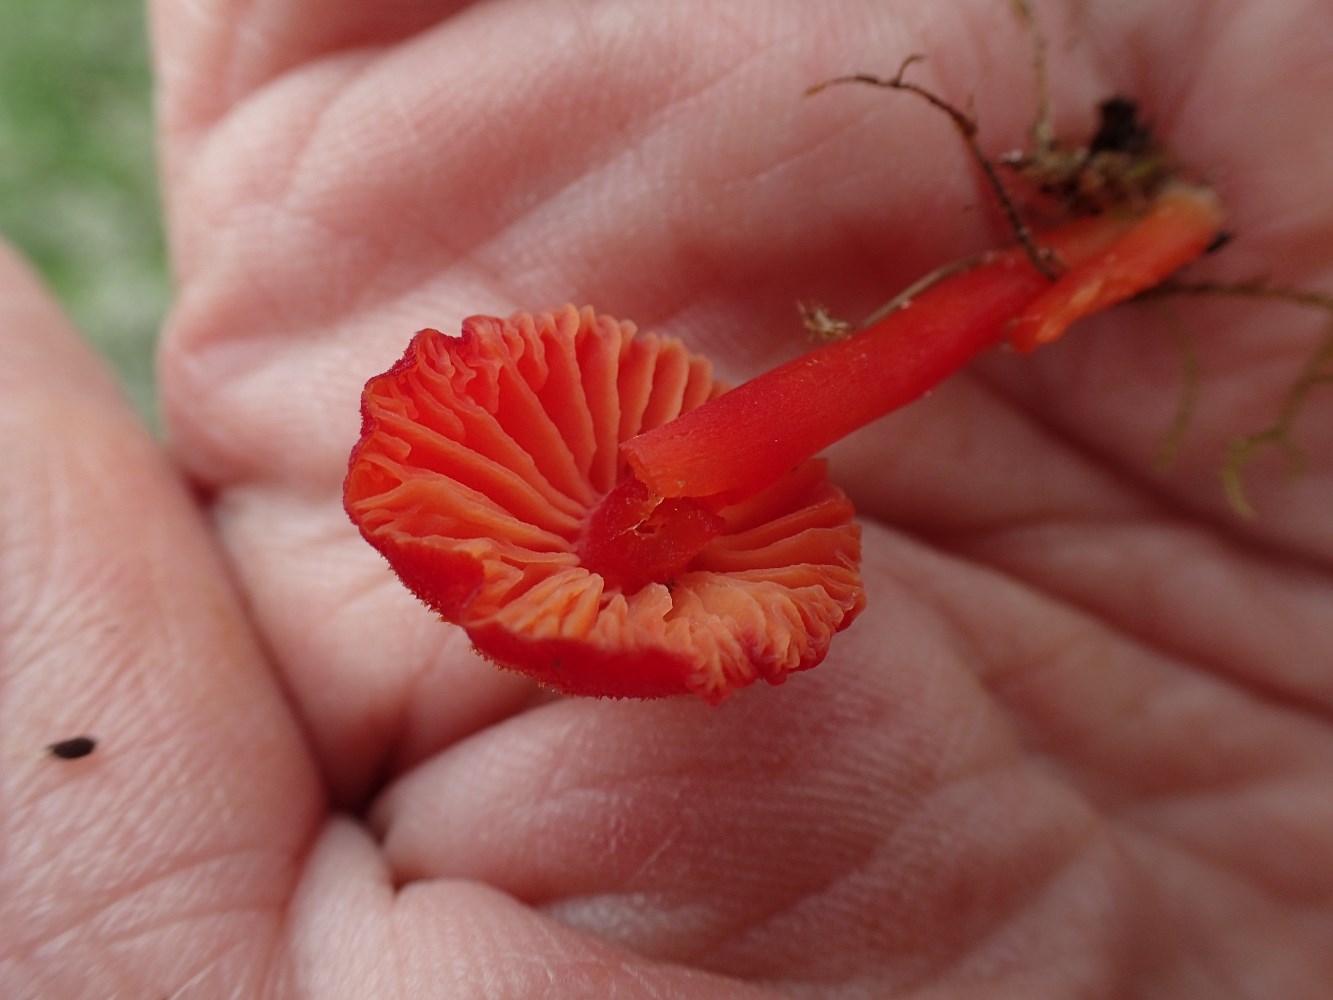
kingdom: Fungi
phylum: Basidiomycota
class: Agaricomycetes
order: Agaricales
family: Hygrophoraceae
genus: Hygrocybe
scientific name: Hygrocybe helobia
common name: hvidløgs-vokshat
